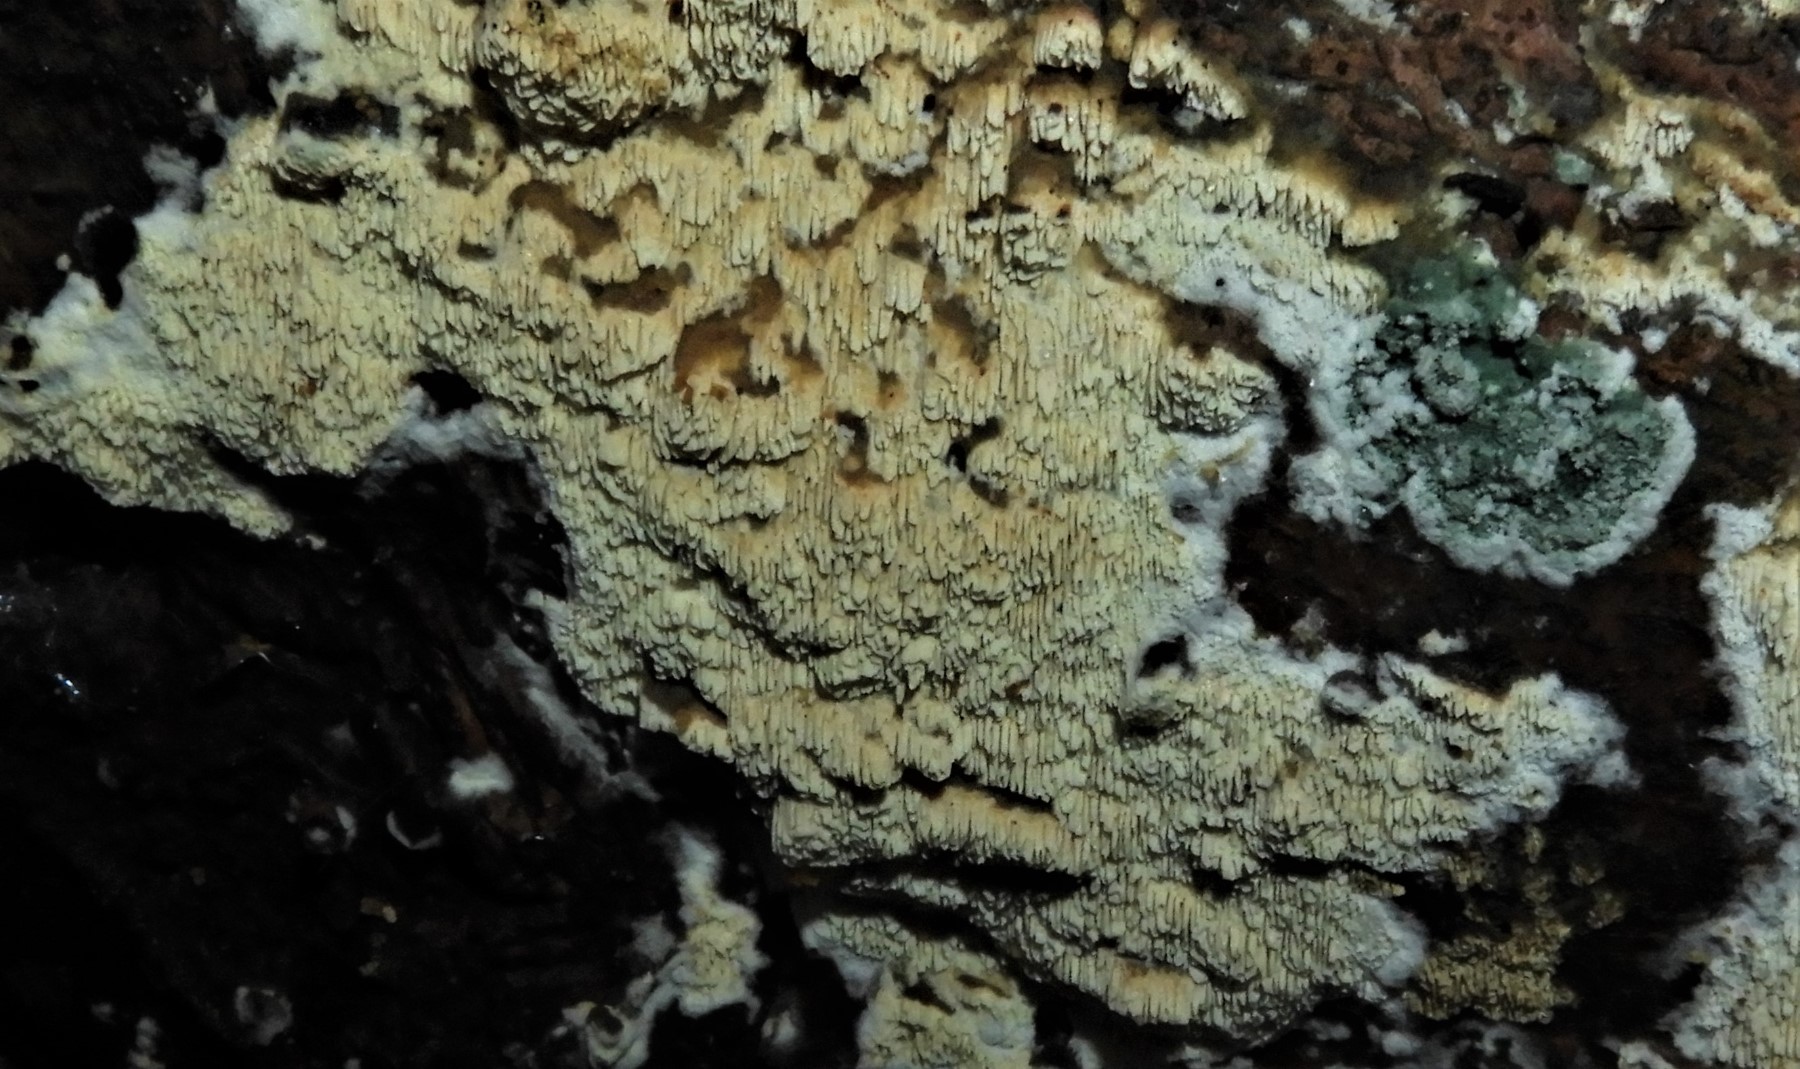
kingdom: Fungi
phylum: Basidiomycota
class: Agaricomycetes
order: Polyporales
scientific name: Polyporales
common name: poresvampordenen
